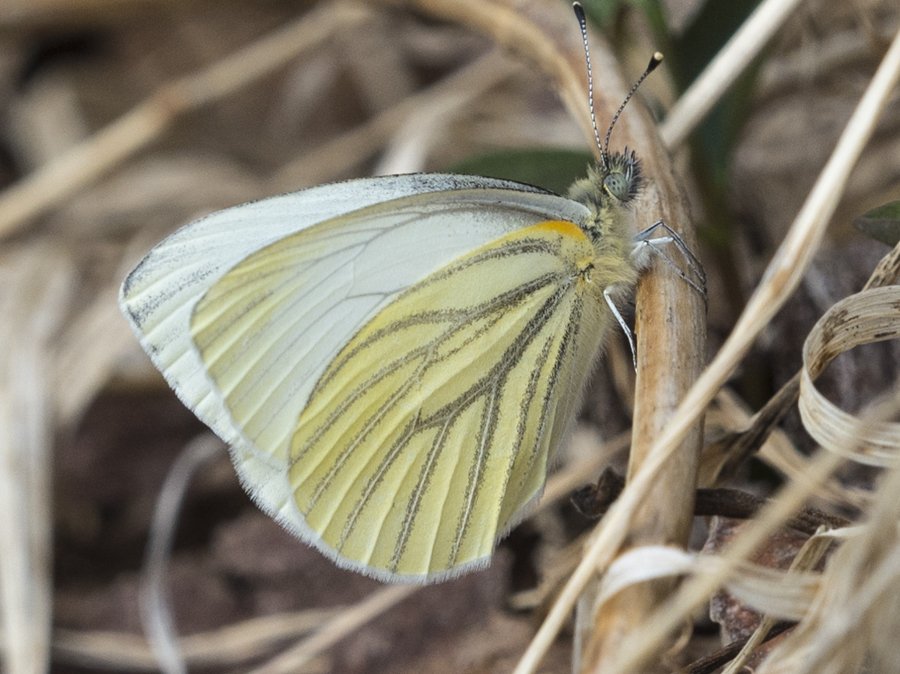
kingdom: Animalia
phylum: Arthropoda
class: Insecta
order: Lepidoptera
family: Pieridae
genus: Pieris
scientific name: Pieris oleracea
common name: Mustard White
